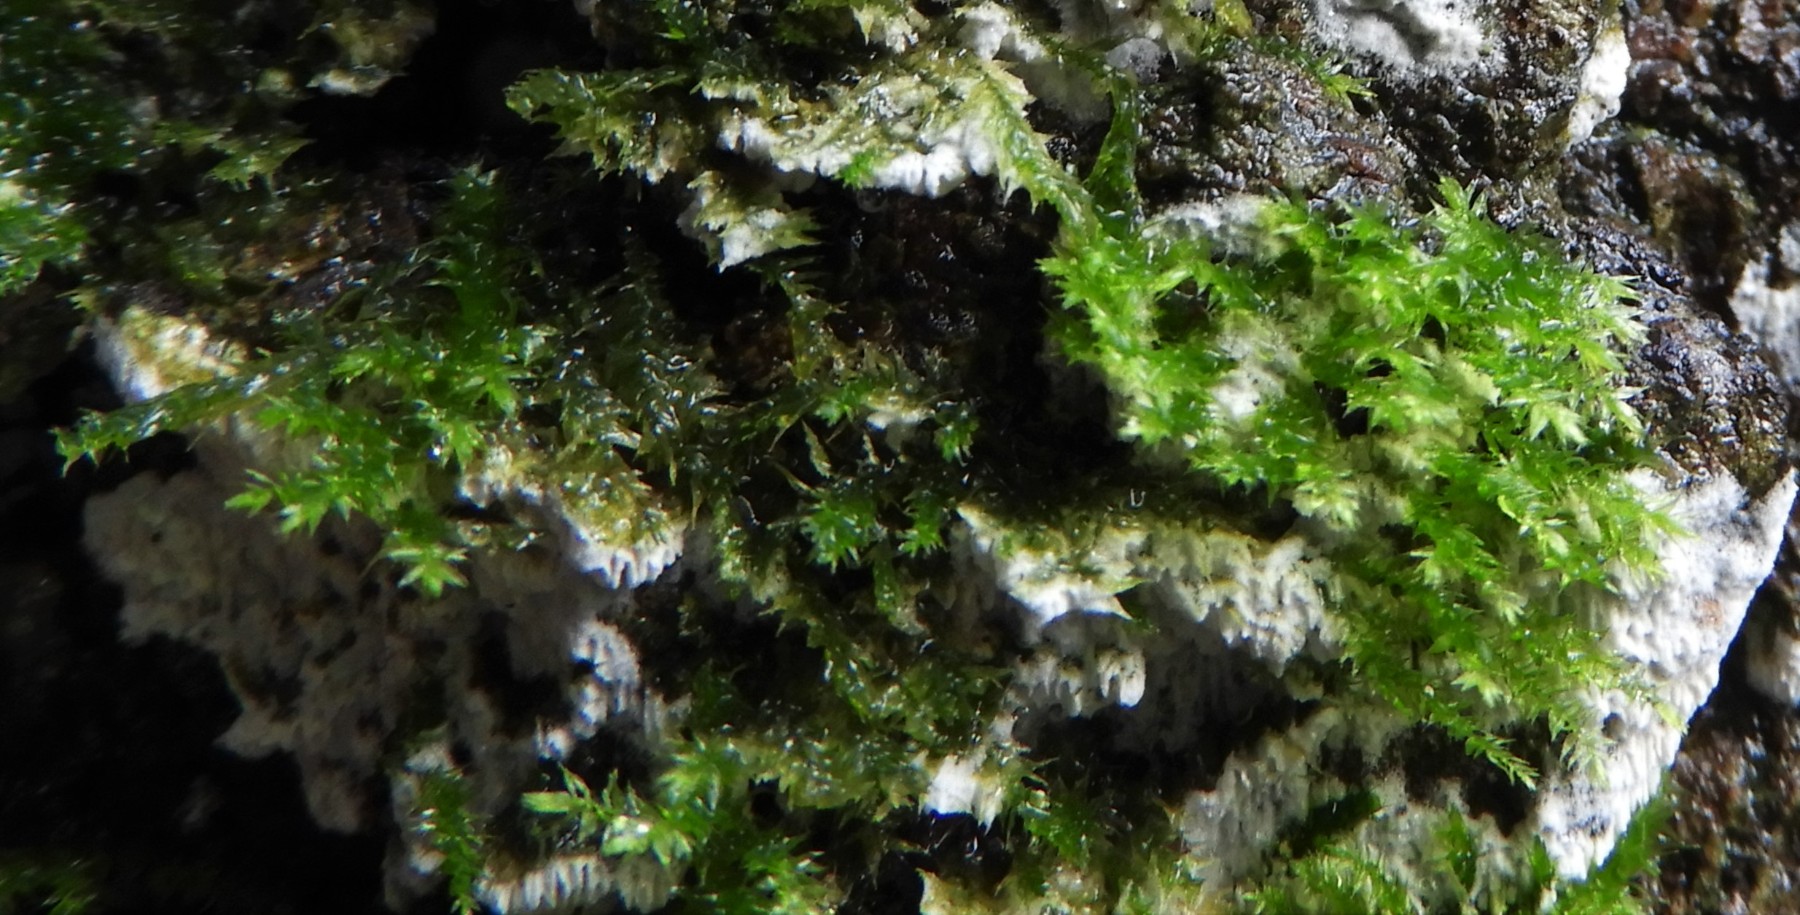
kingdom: Fungi
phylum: Basidiomycota
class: Agaricomycetes
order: Hymenochaetales
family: Schizoporaceae
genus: Schizopora
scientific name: Schizopora paradoxa
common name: hvid tandsvamp
